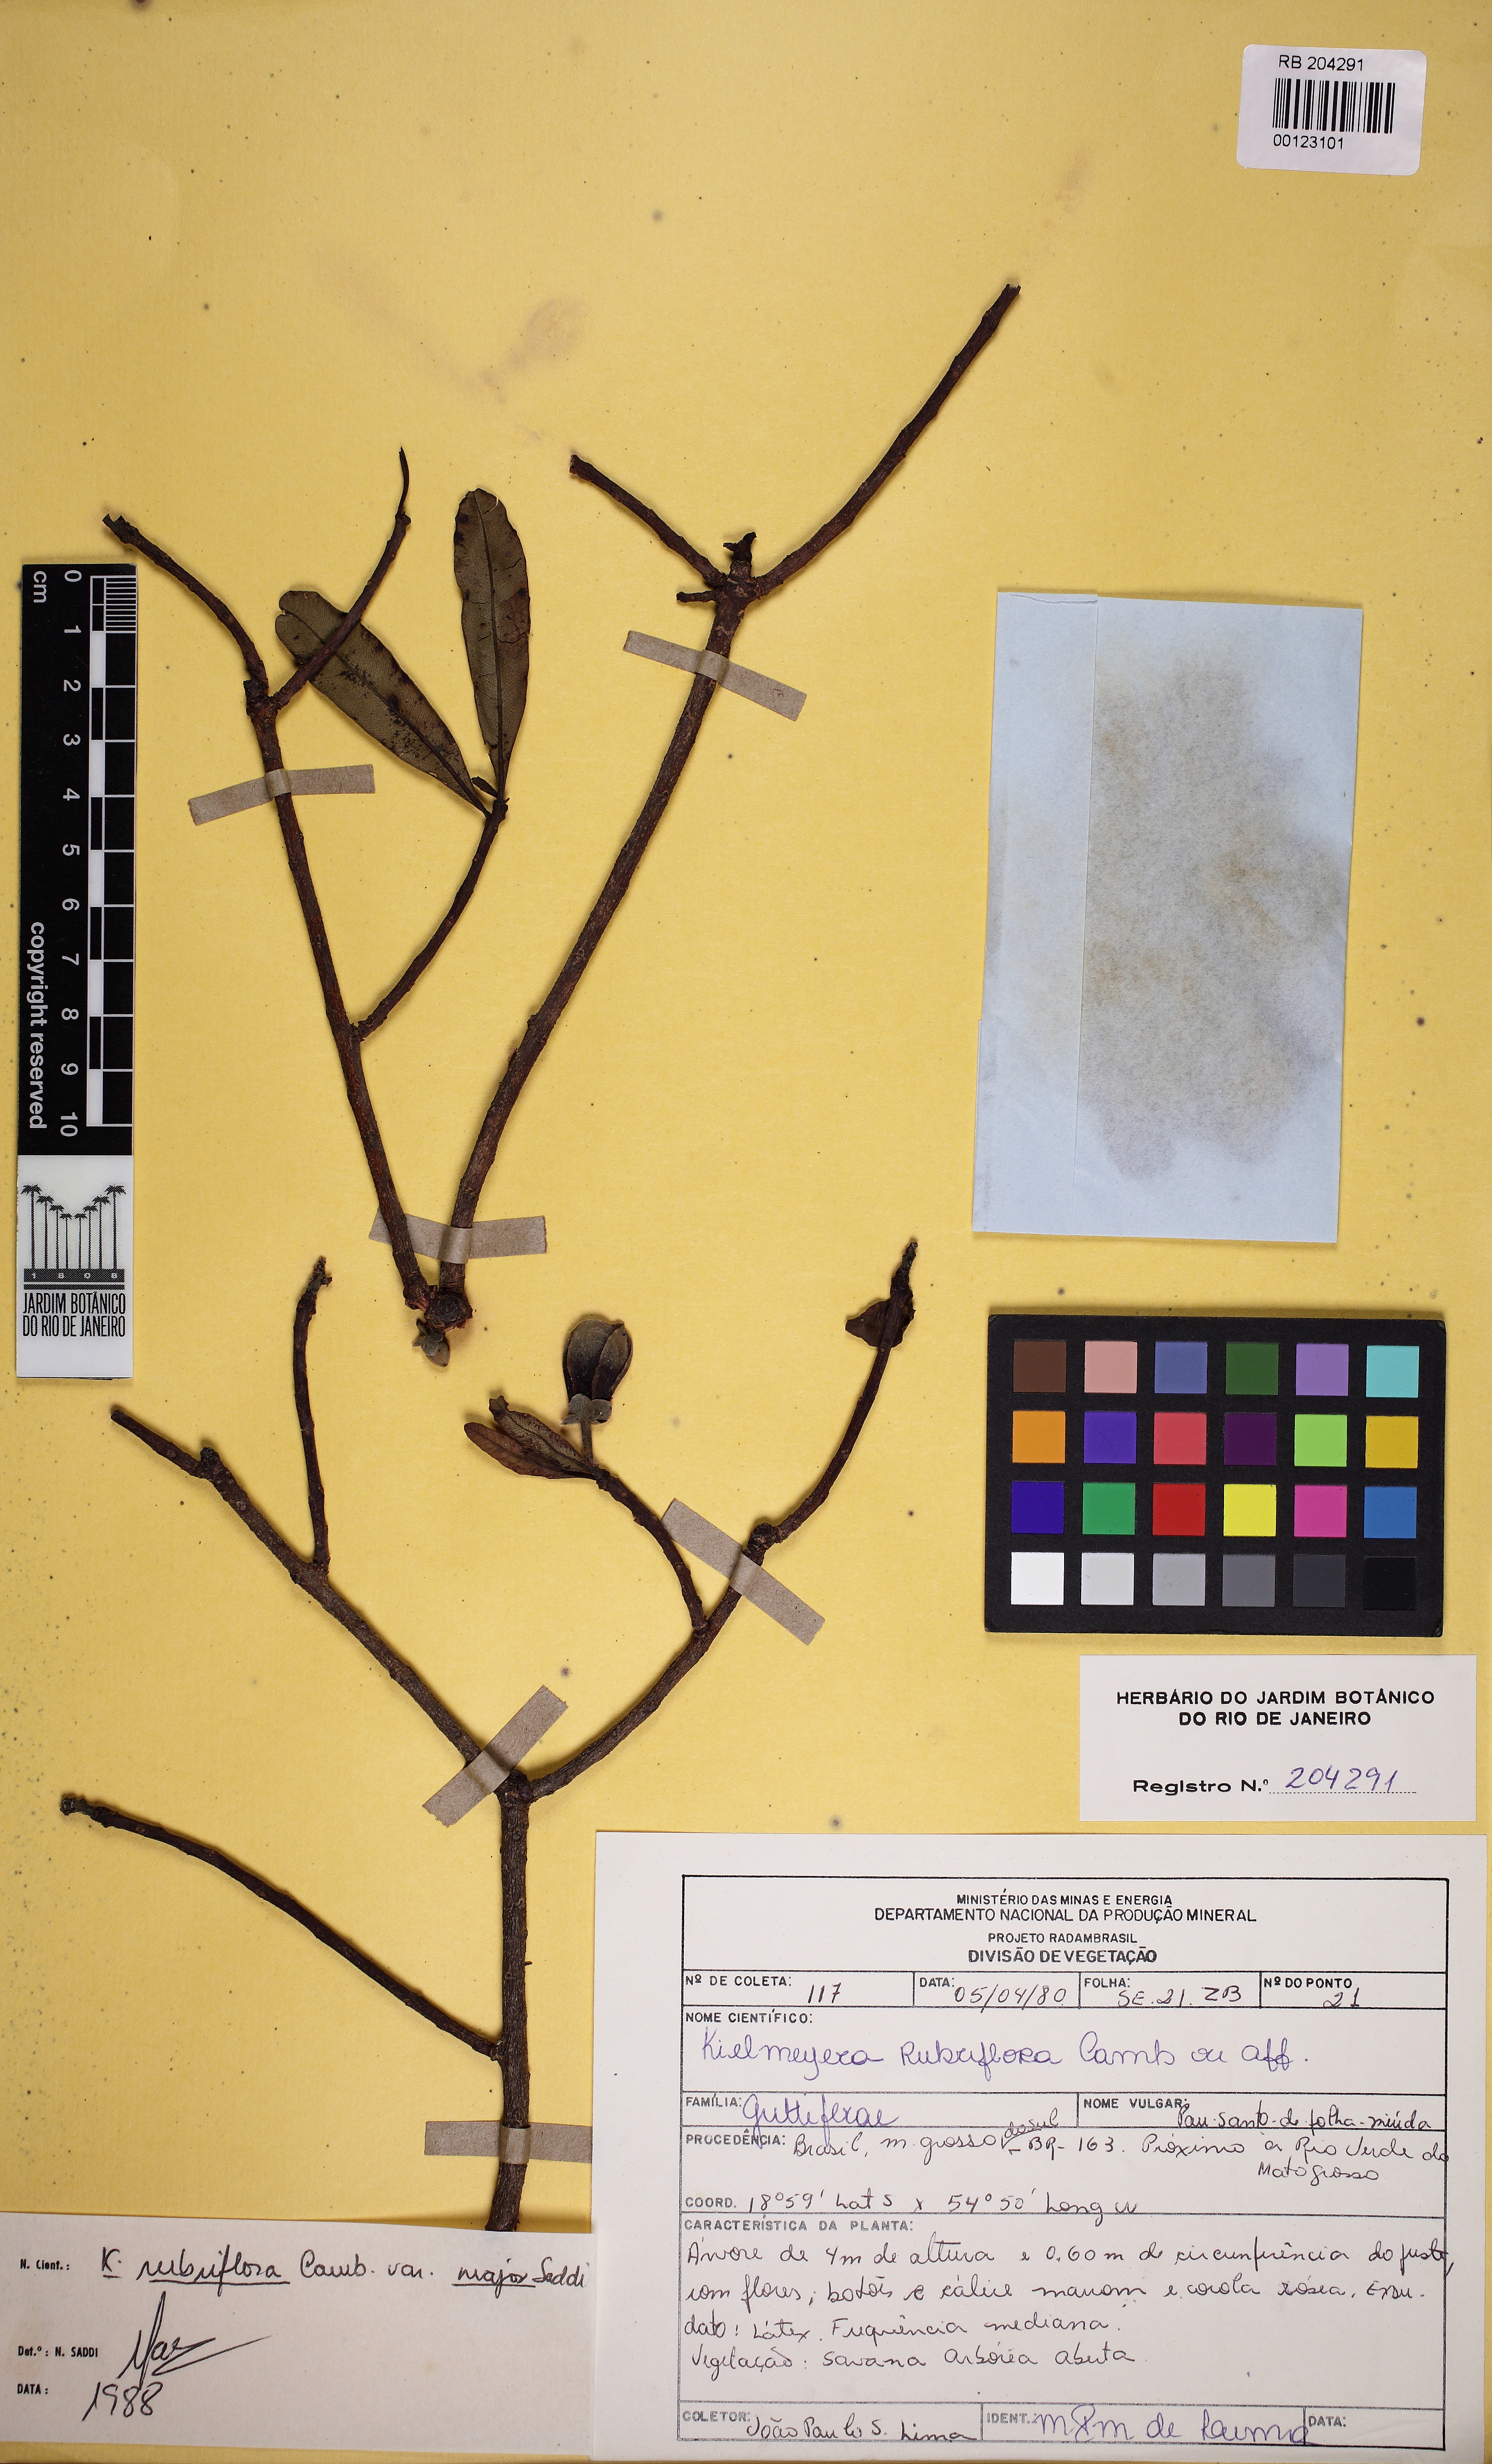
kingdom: Plantae
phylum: Tracheophyta
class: Magnoliopsida
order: Malpighiales
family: Calophyllaceae
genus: Kielmeyera
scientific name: Kielmeyera rubriflora
